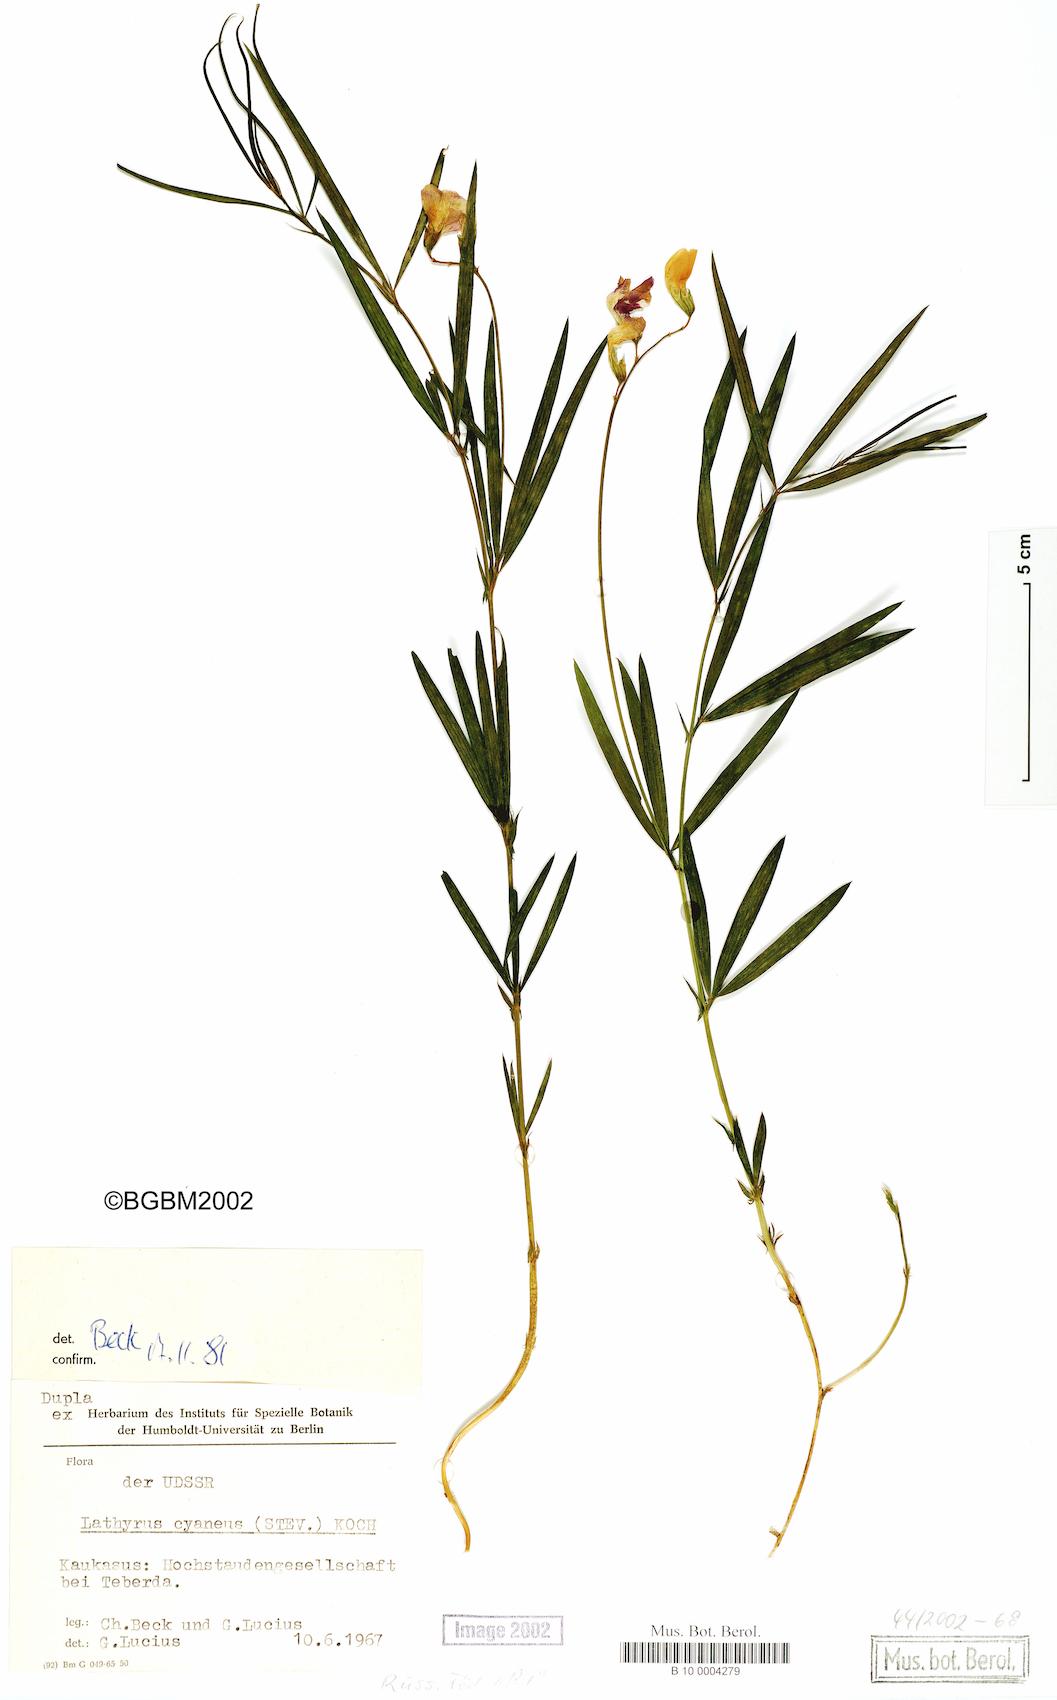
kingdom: Plantae
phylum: Tracheophyta
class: Magnoliopsida
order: Fabales
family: Fabaceae
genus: Lathyrus
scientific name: Lathyrus cyaneus
